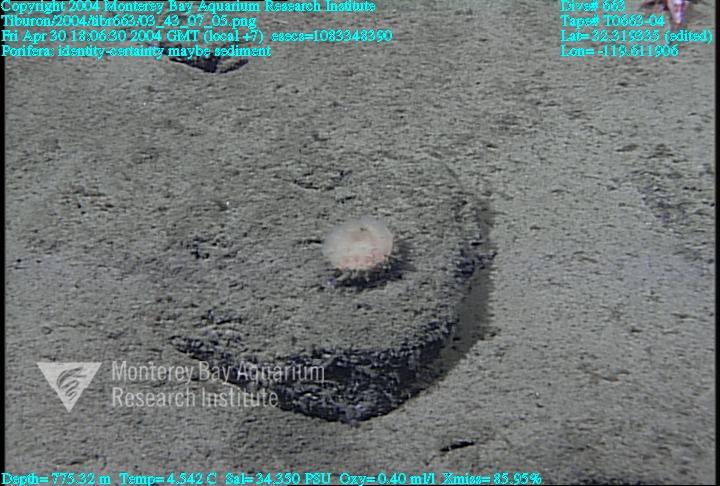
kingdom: Animalia
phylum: Porifera
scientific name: Porifera
